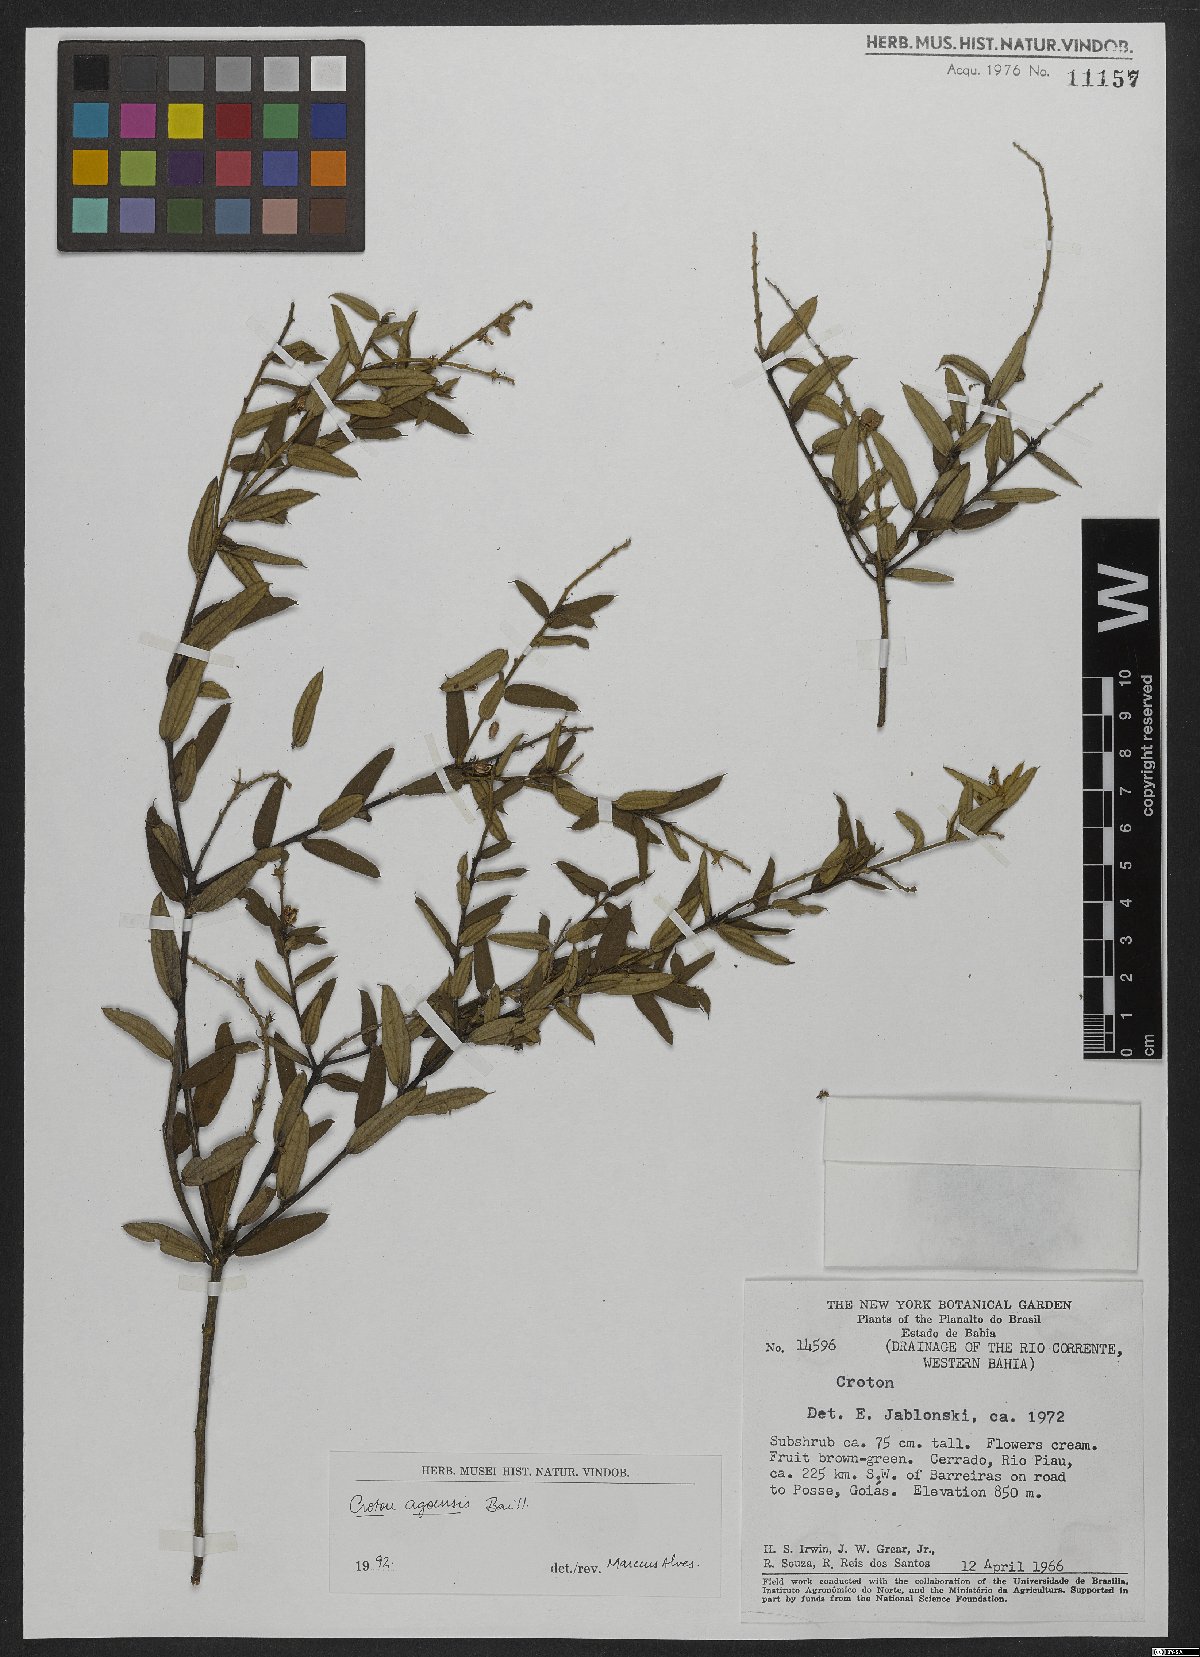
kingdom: Plantae
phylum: Tracheophyta
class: Magnoliopsida
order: Malpighiales
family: Euphorbiaceae
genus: Croton
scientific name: Croton agoensis
